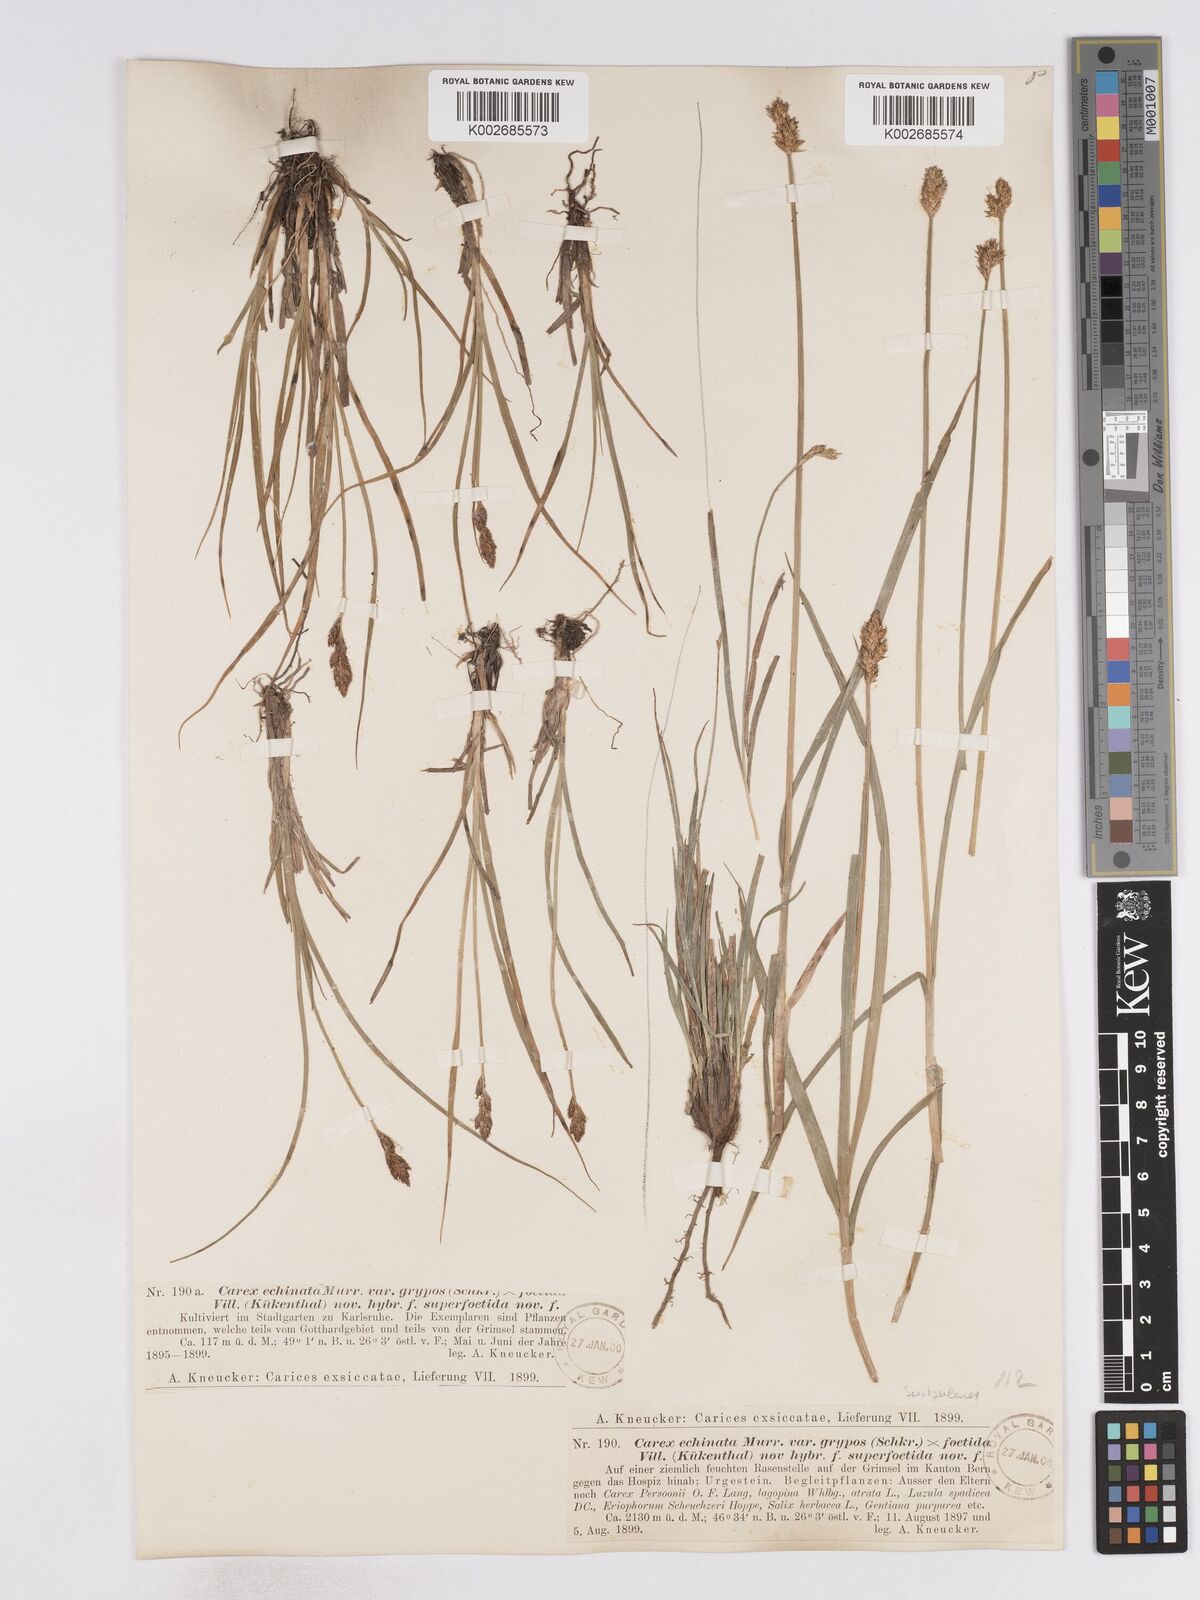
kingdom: Plantae
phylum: Tracheophyta
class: Liliopsida
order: Poales
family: Cyperaceae
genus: Carex
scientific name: Carex echinata
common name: Star sedge
